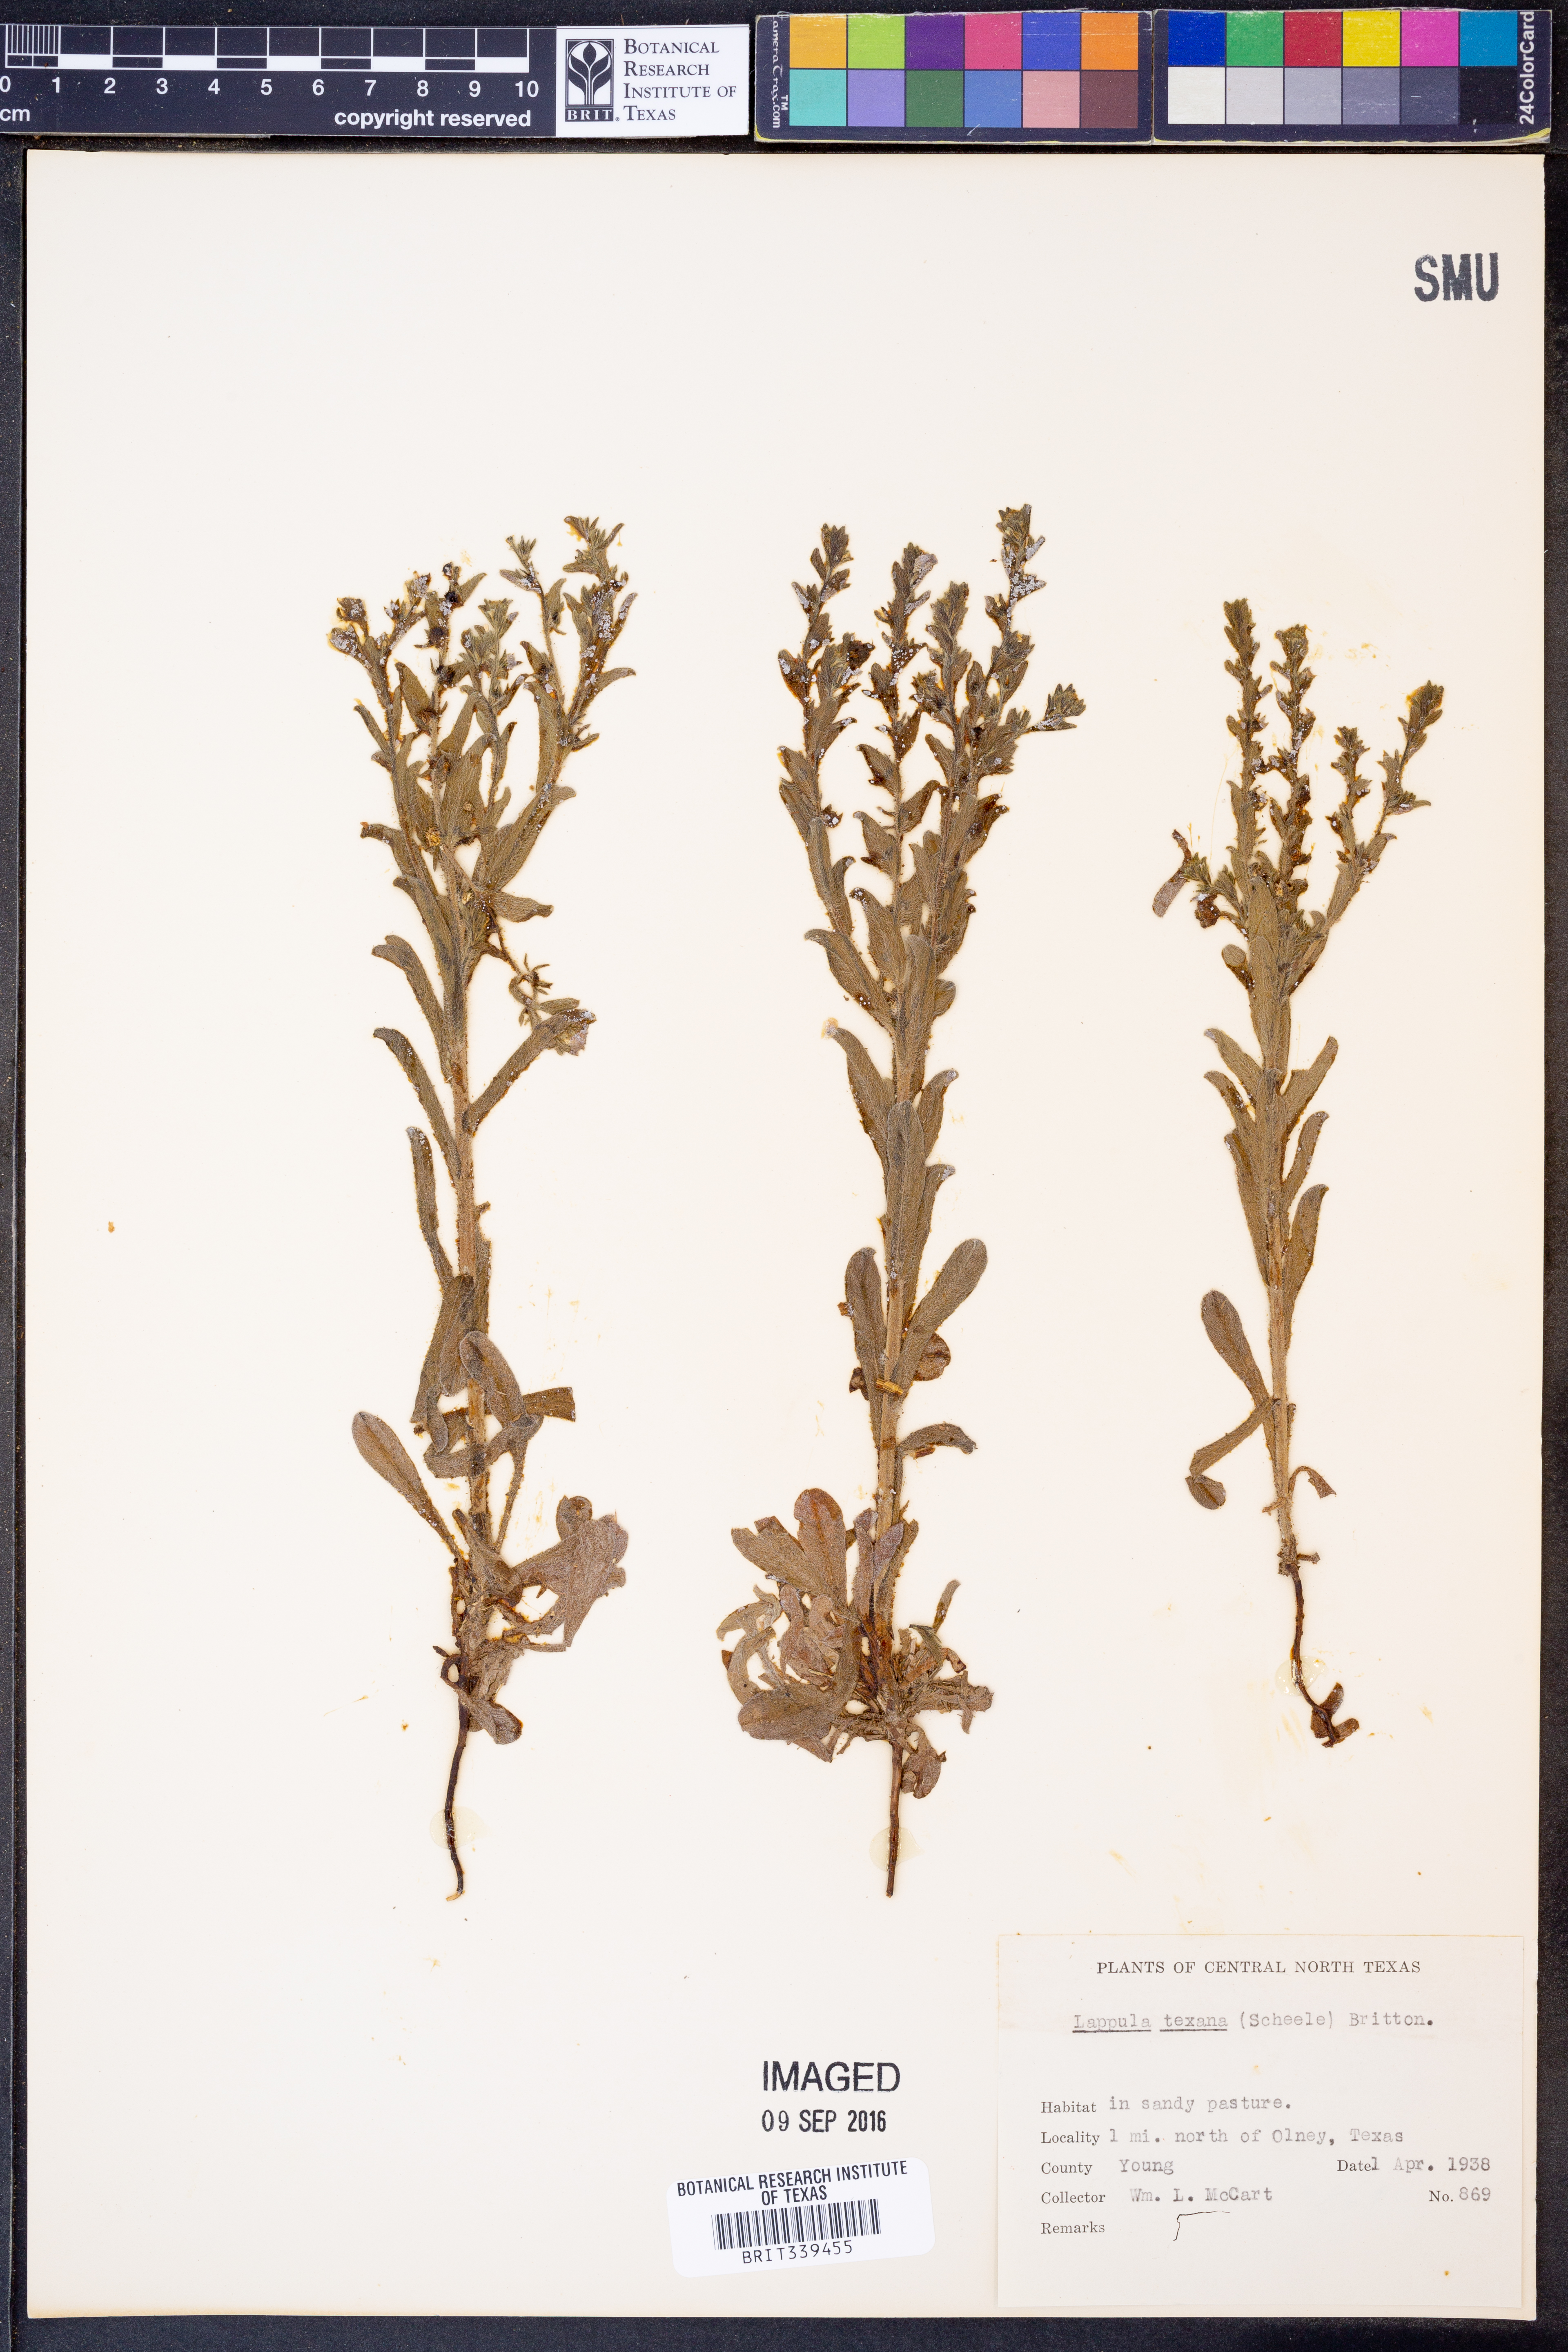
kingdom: Plantae
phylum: Tracheophyta
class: Magnoliopsida
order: Boraginales
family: Boraginaceae
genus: Lappula
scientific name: Lappula occidentalis
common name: Western stickseed
